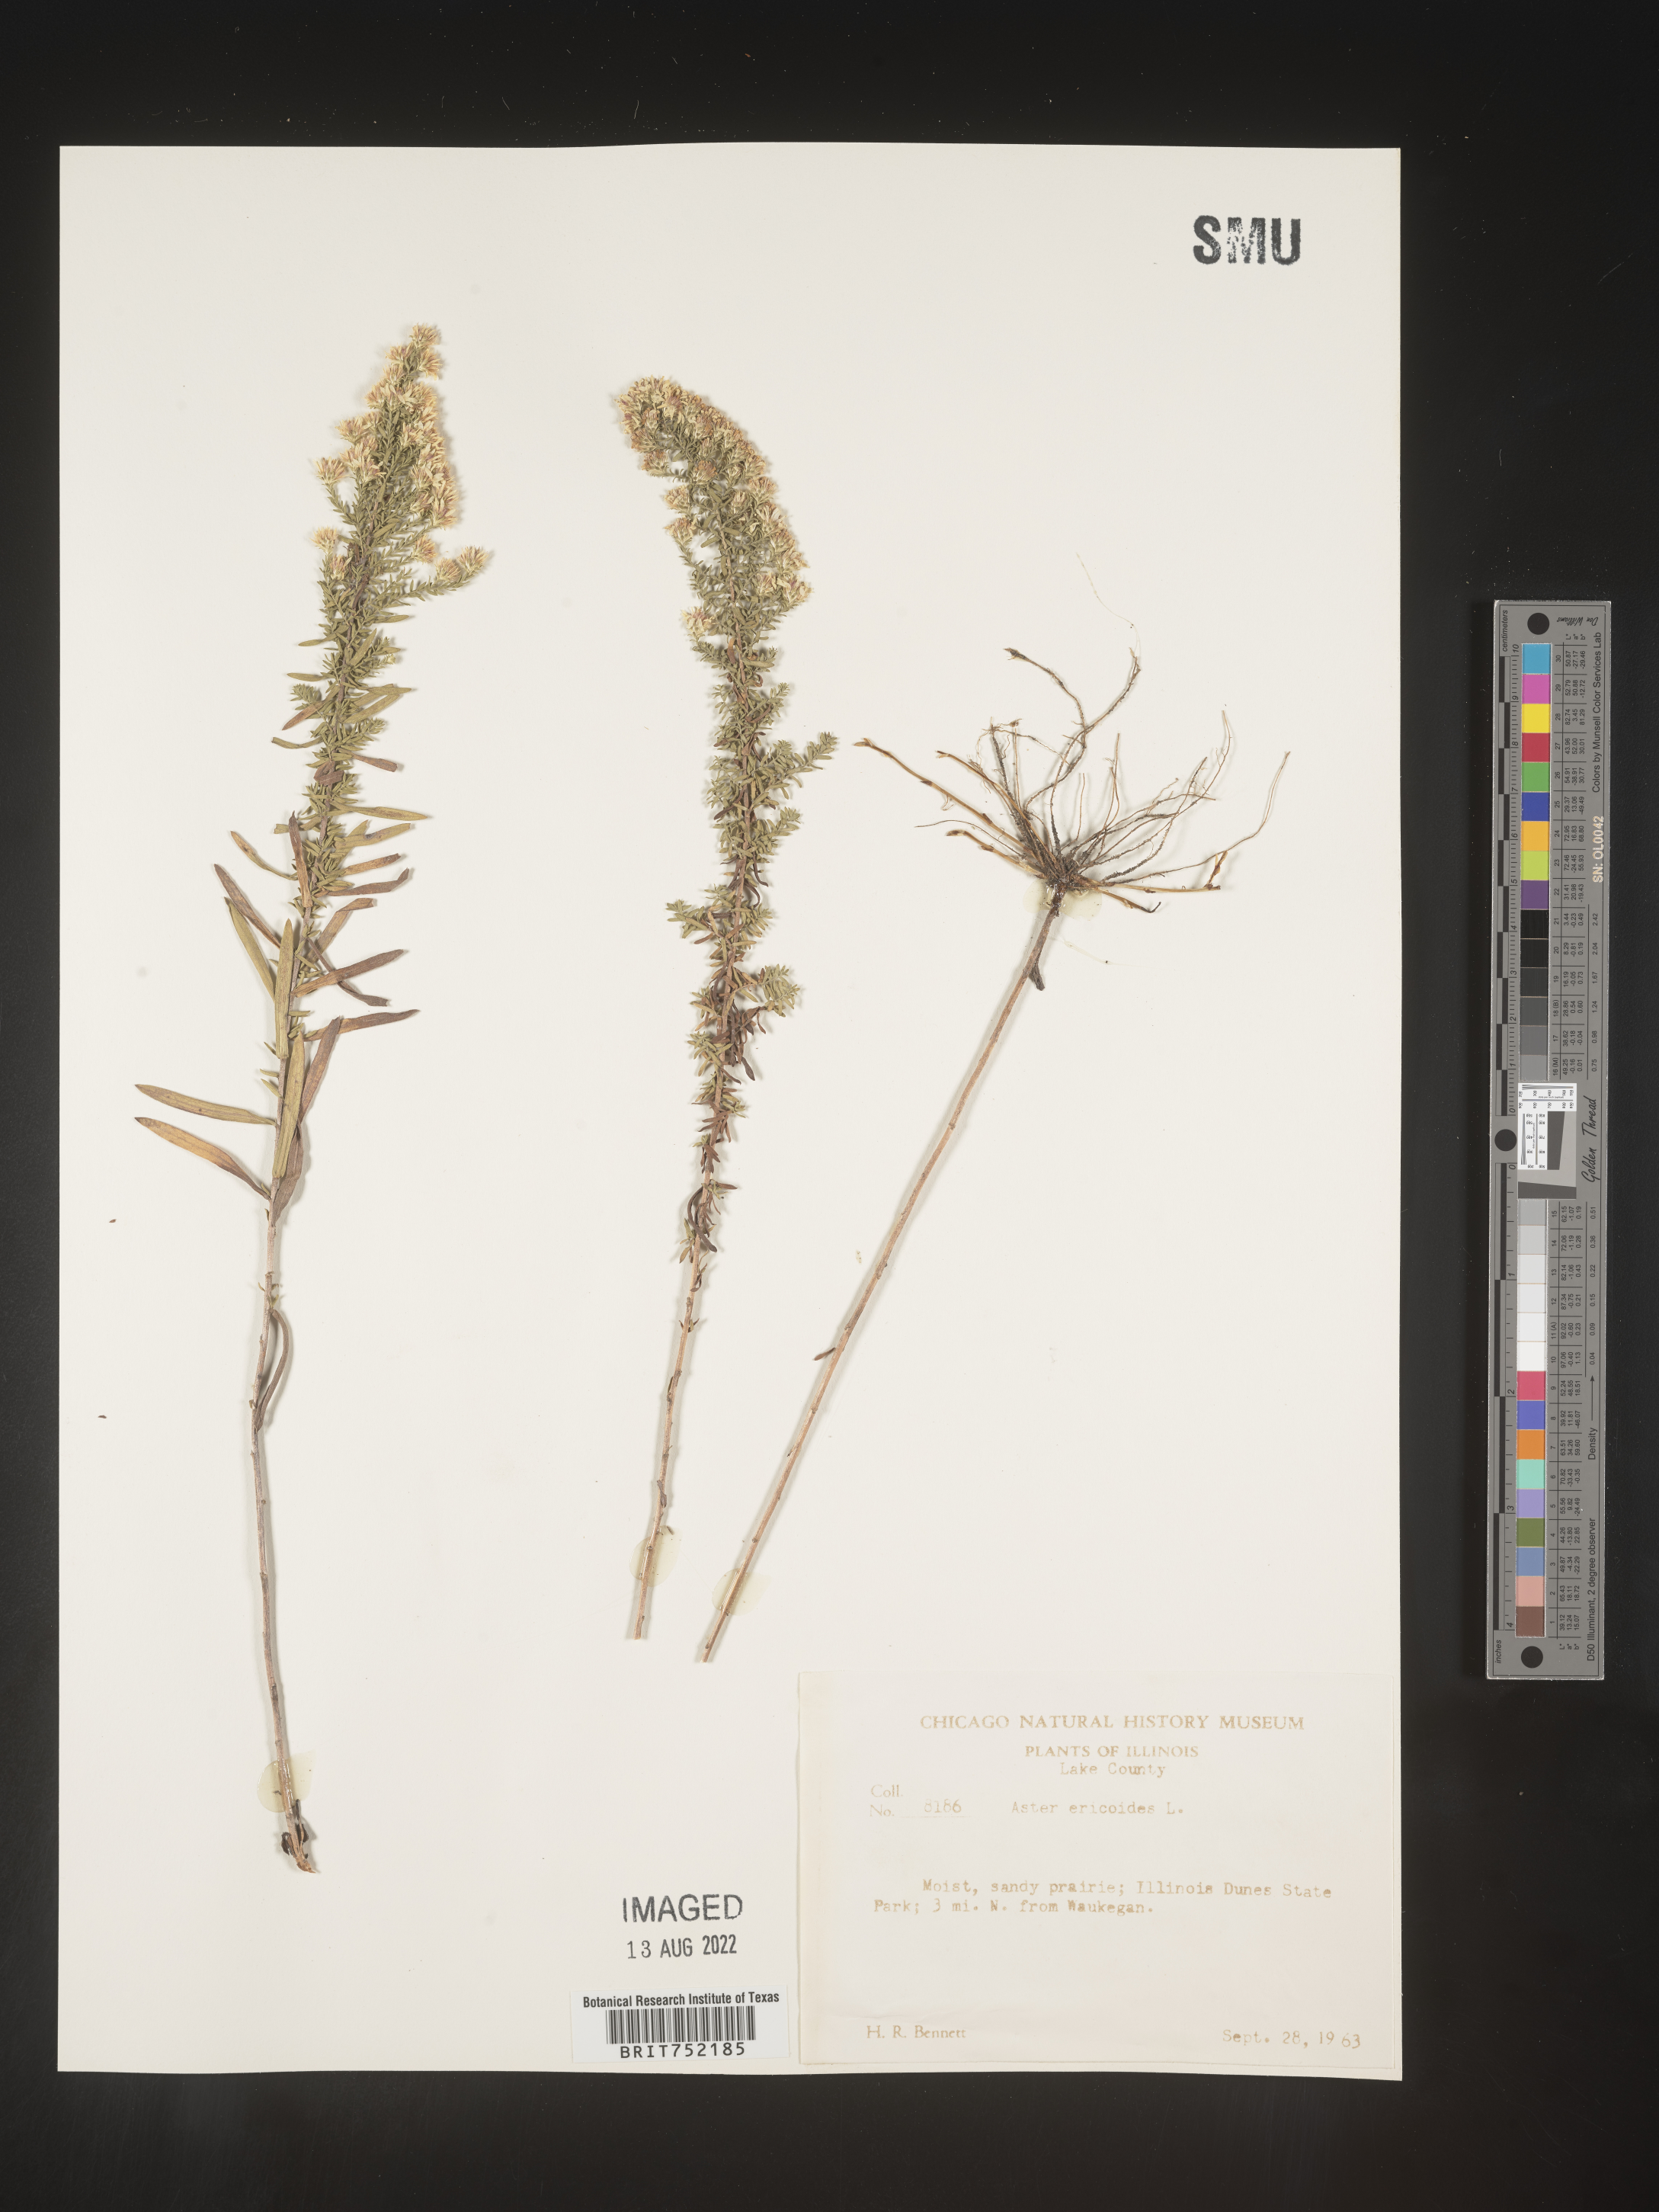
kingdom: Plantae
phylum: Tracheophyta
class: Magnoliopsida
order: Asterales
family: Asteraceae
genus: Symphyotrichum
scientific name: Symphyotrichum ericoides
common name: Heath aster
